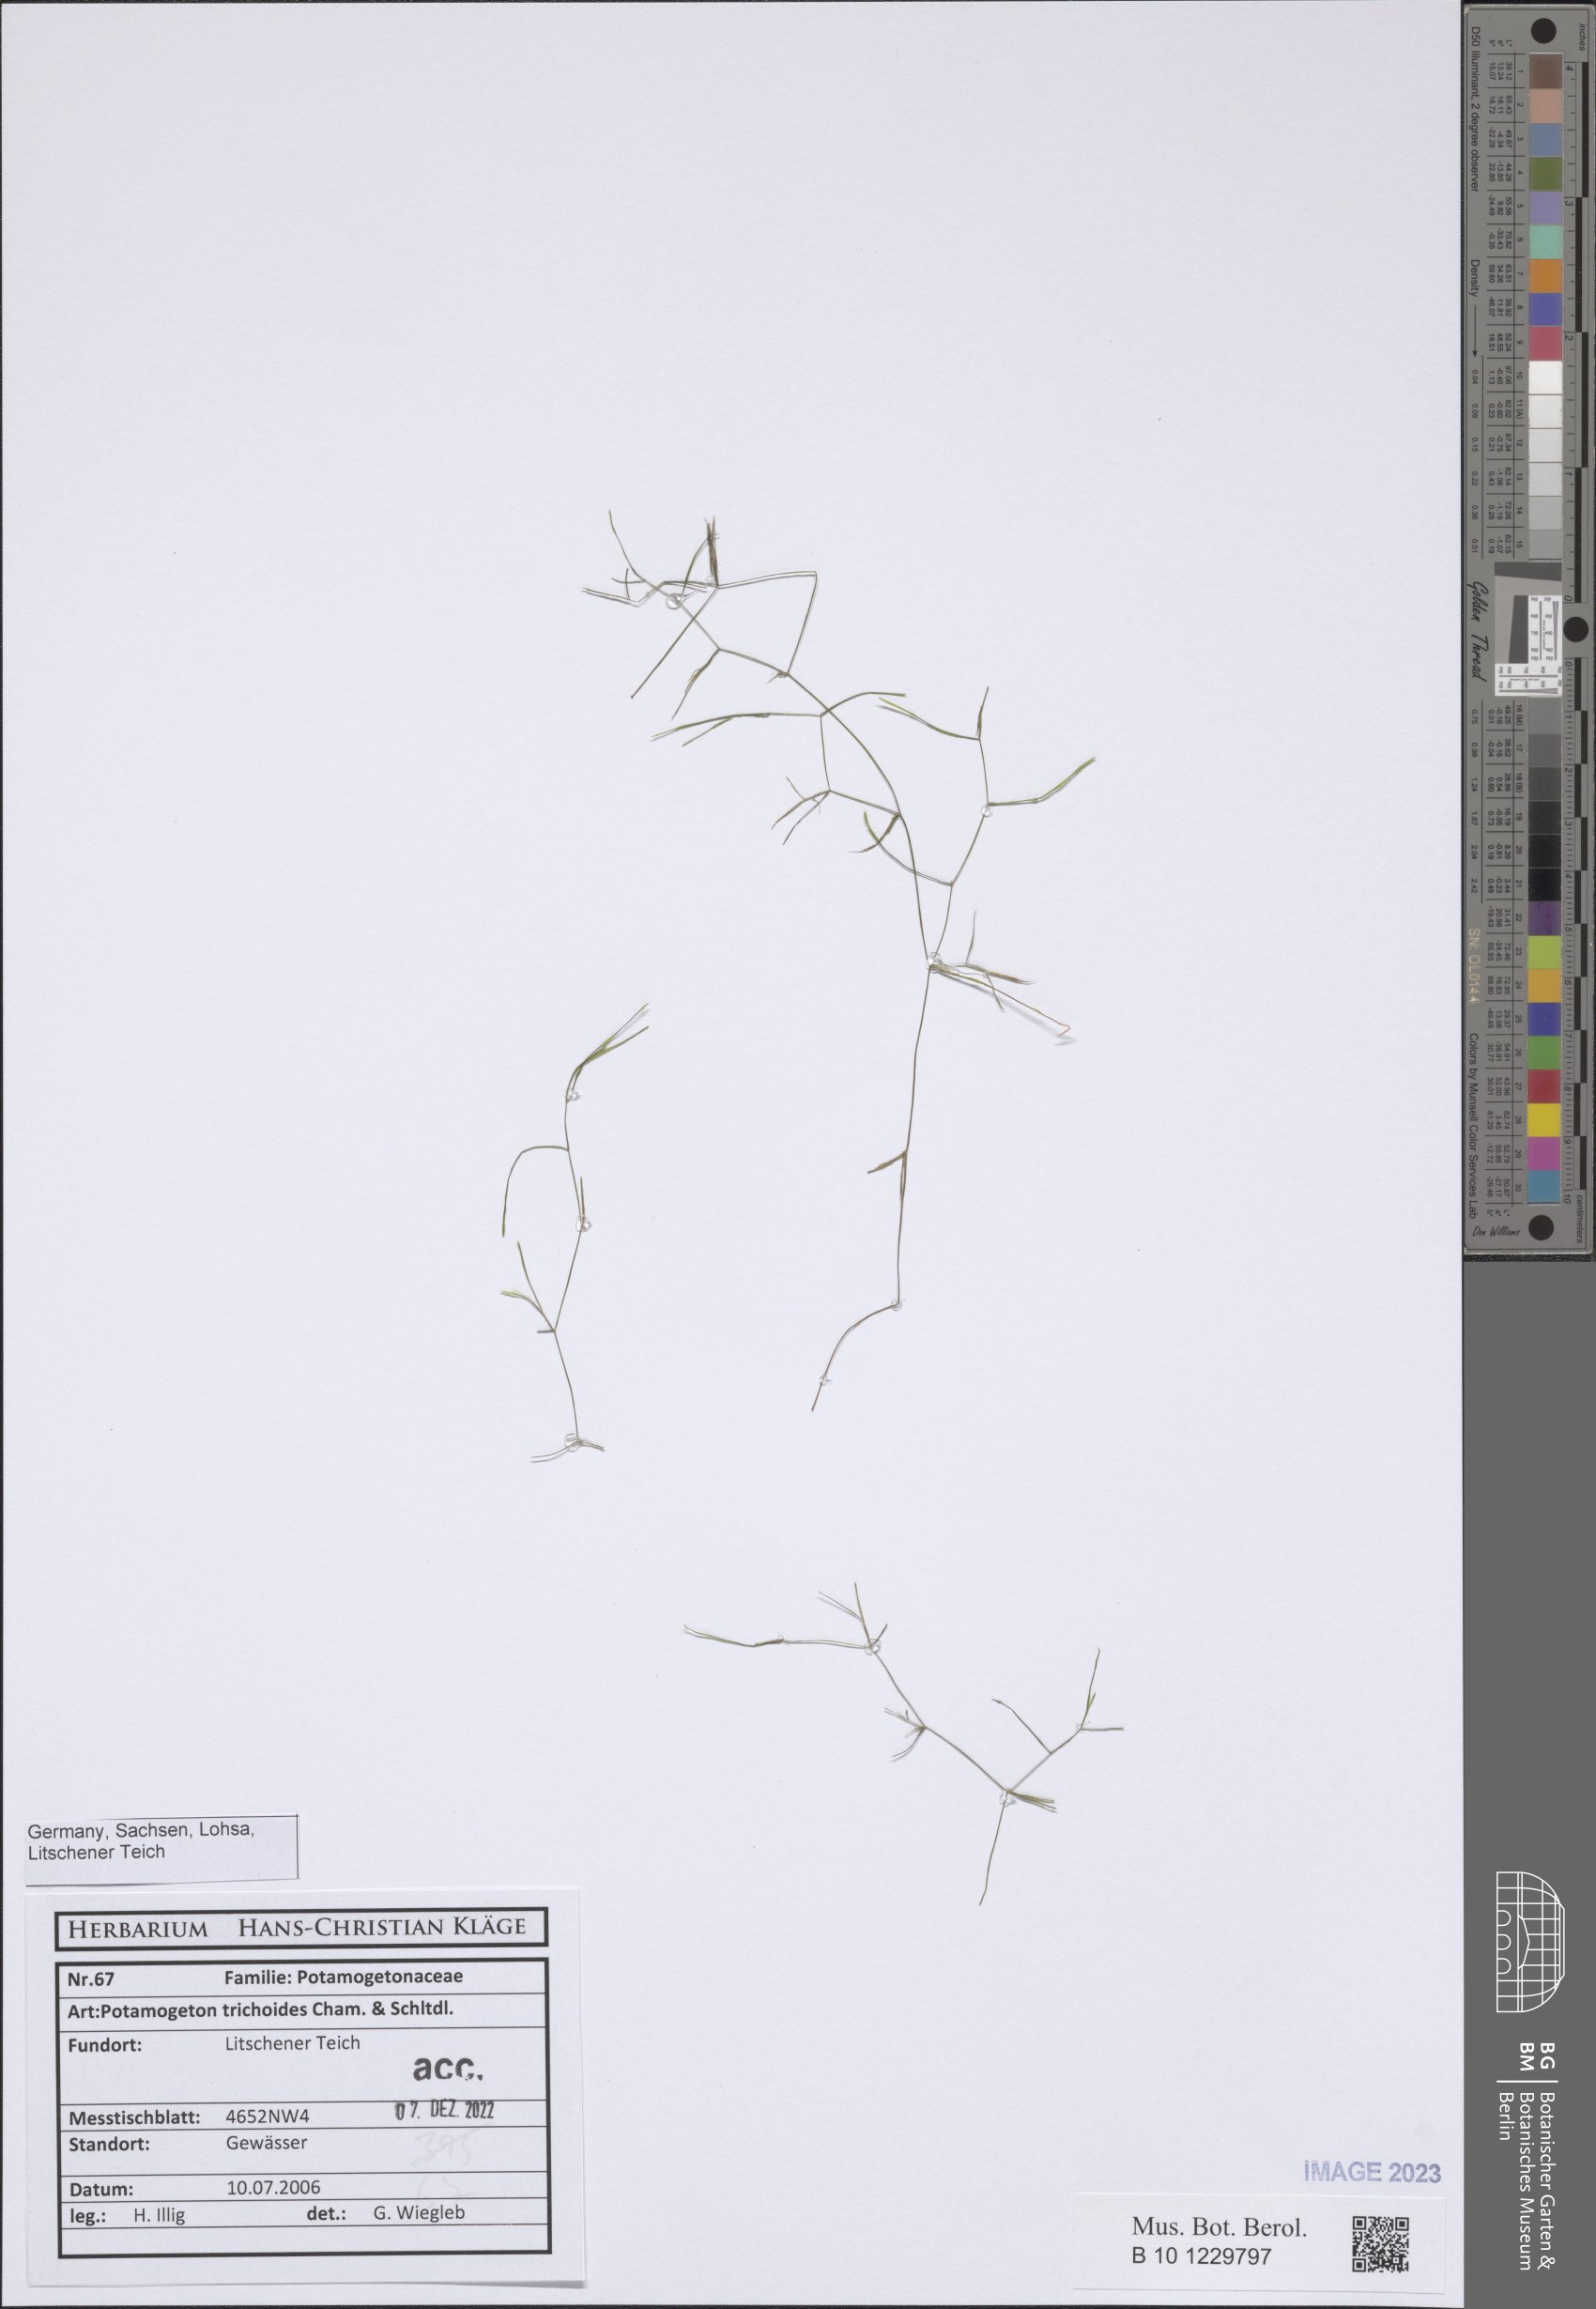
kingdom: Plantae
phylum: Tracheophyta
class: Liliopsida
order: Alismatales
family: Potamogetonaceae
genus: Potamogeton
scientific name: Potamogeton trichoides
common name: Hairlike pondweed
